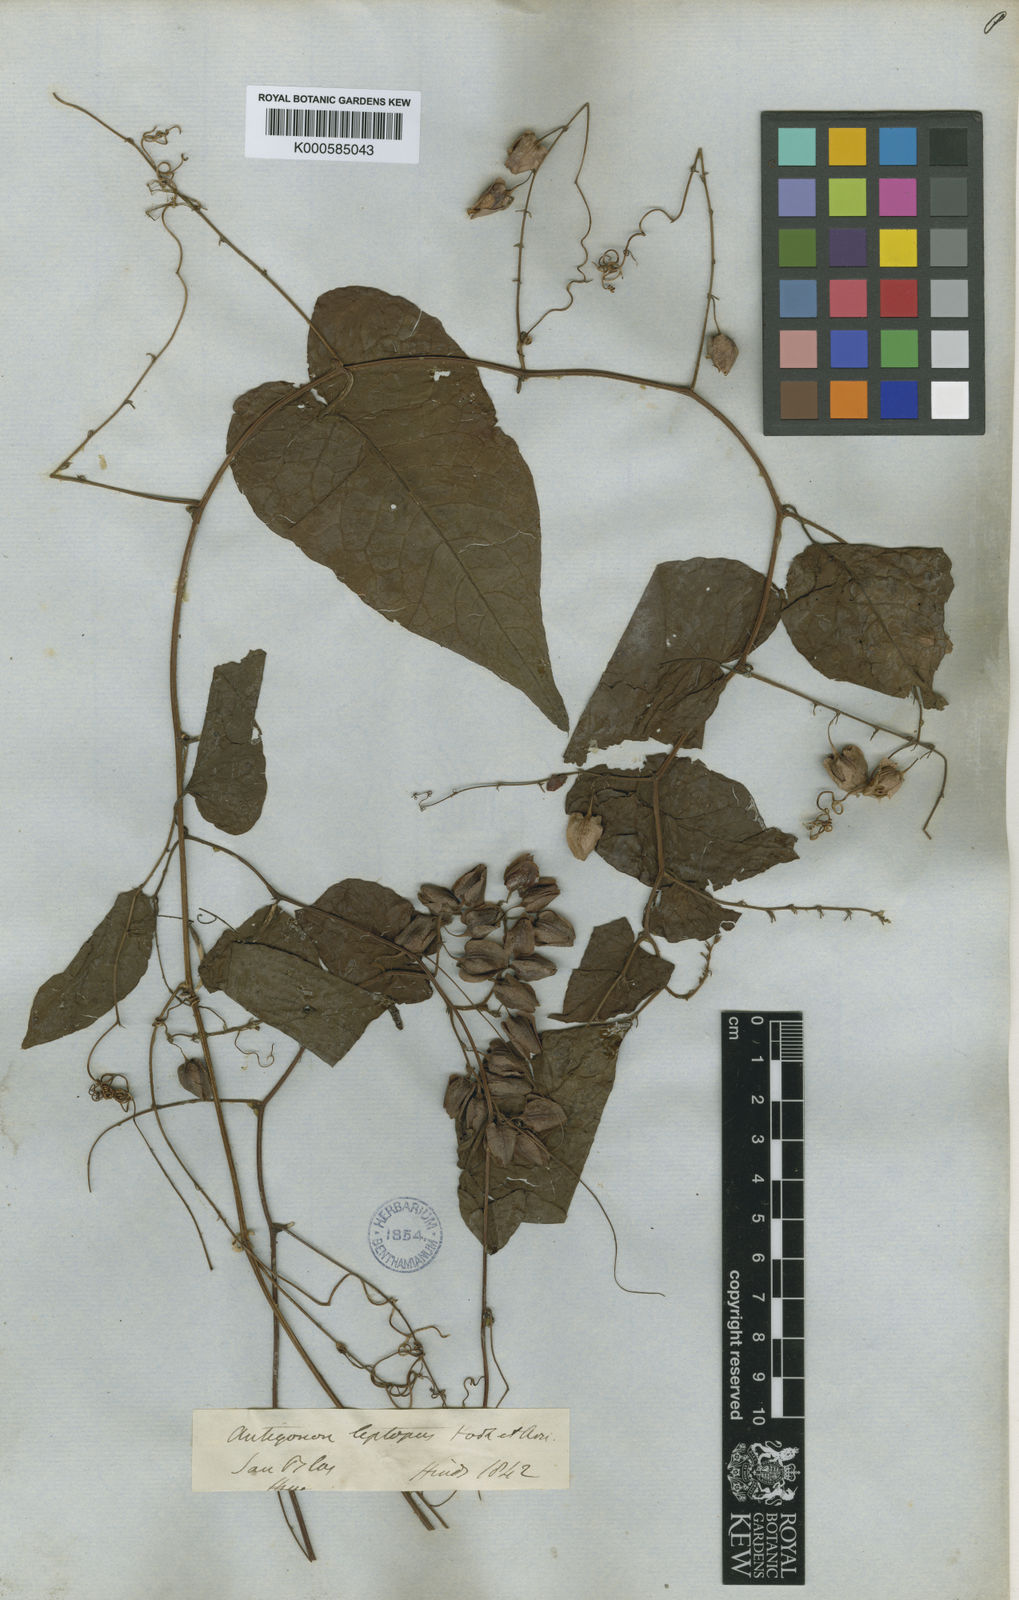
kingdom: Plantae
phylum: Tracheophyta
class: Magnoliopsida
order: Caryophyllales
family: Polygonaceae
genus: Antigonon
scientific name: Antigonon leptopus
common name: Coral vine
